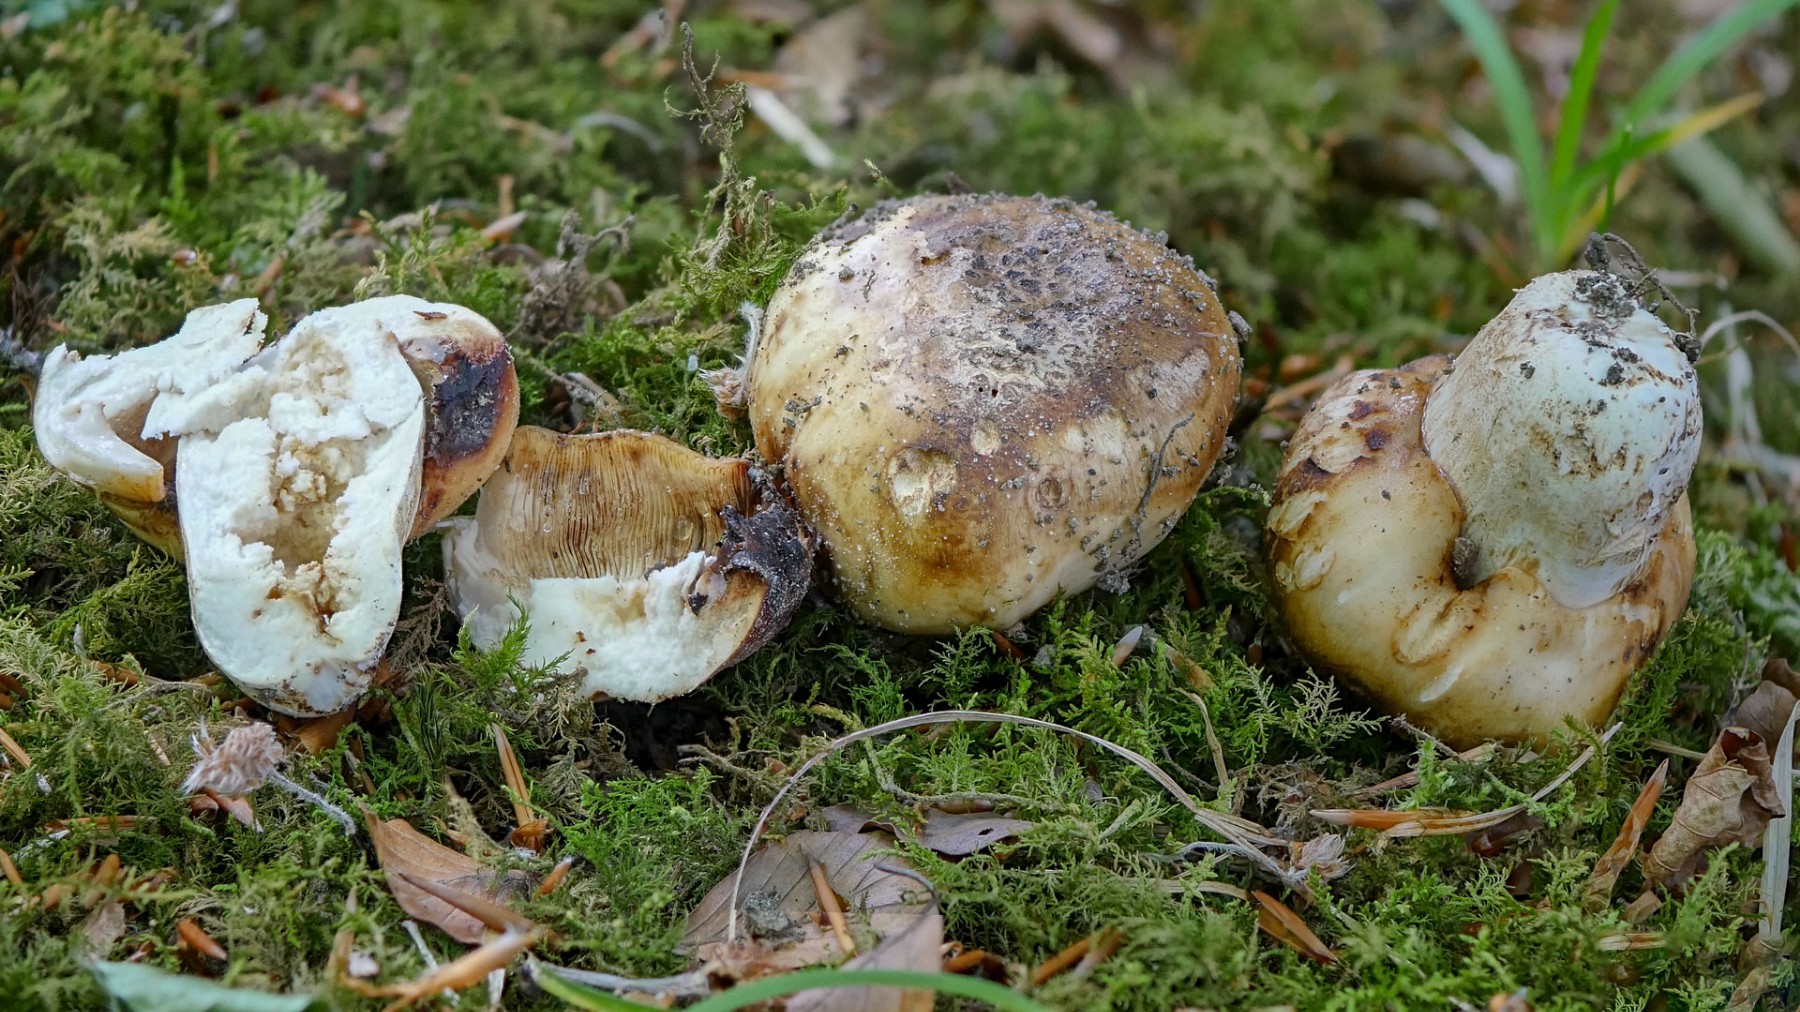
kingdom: Fungi
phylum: Basidiomycota
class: Agaricomycetes
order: Russulales
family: Russulaceae
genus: Russula
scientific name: Russula foetens
